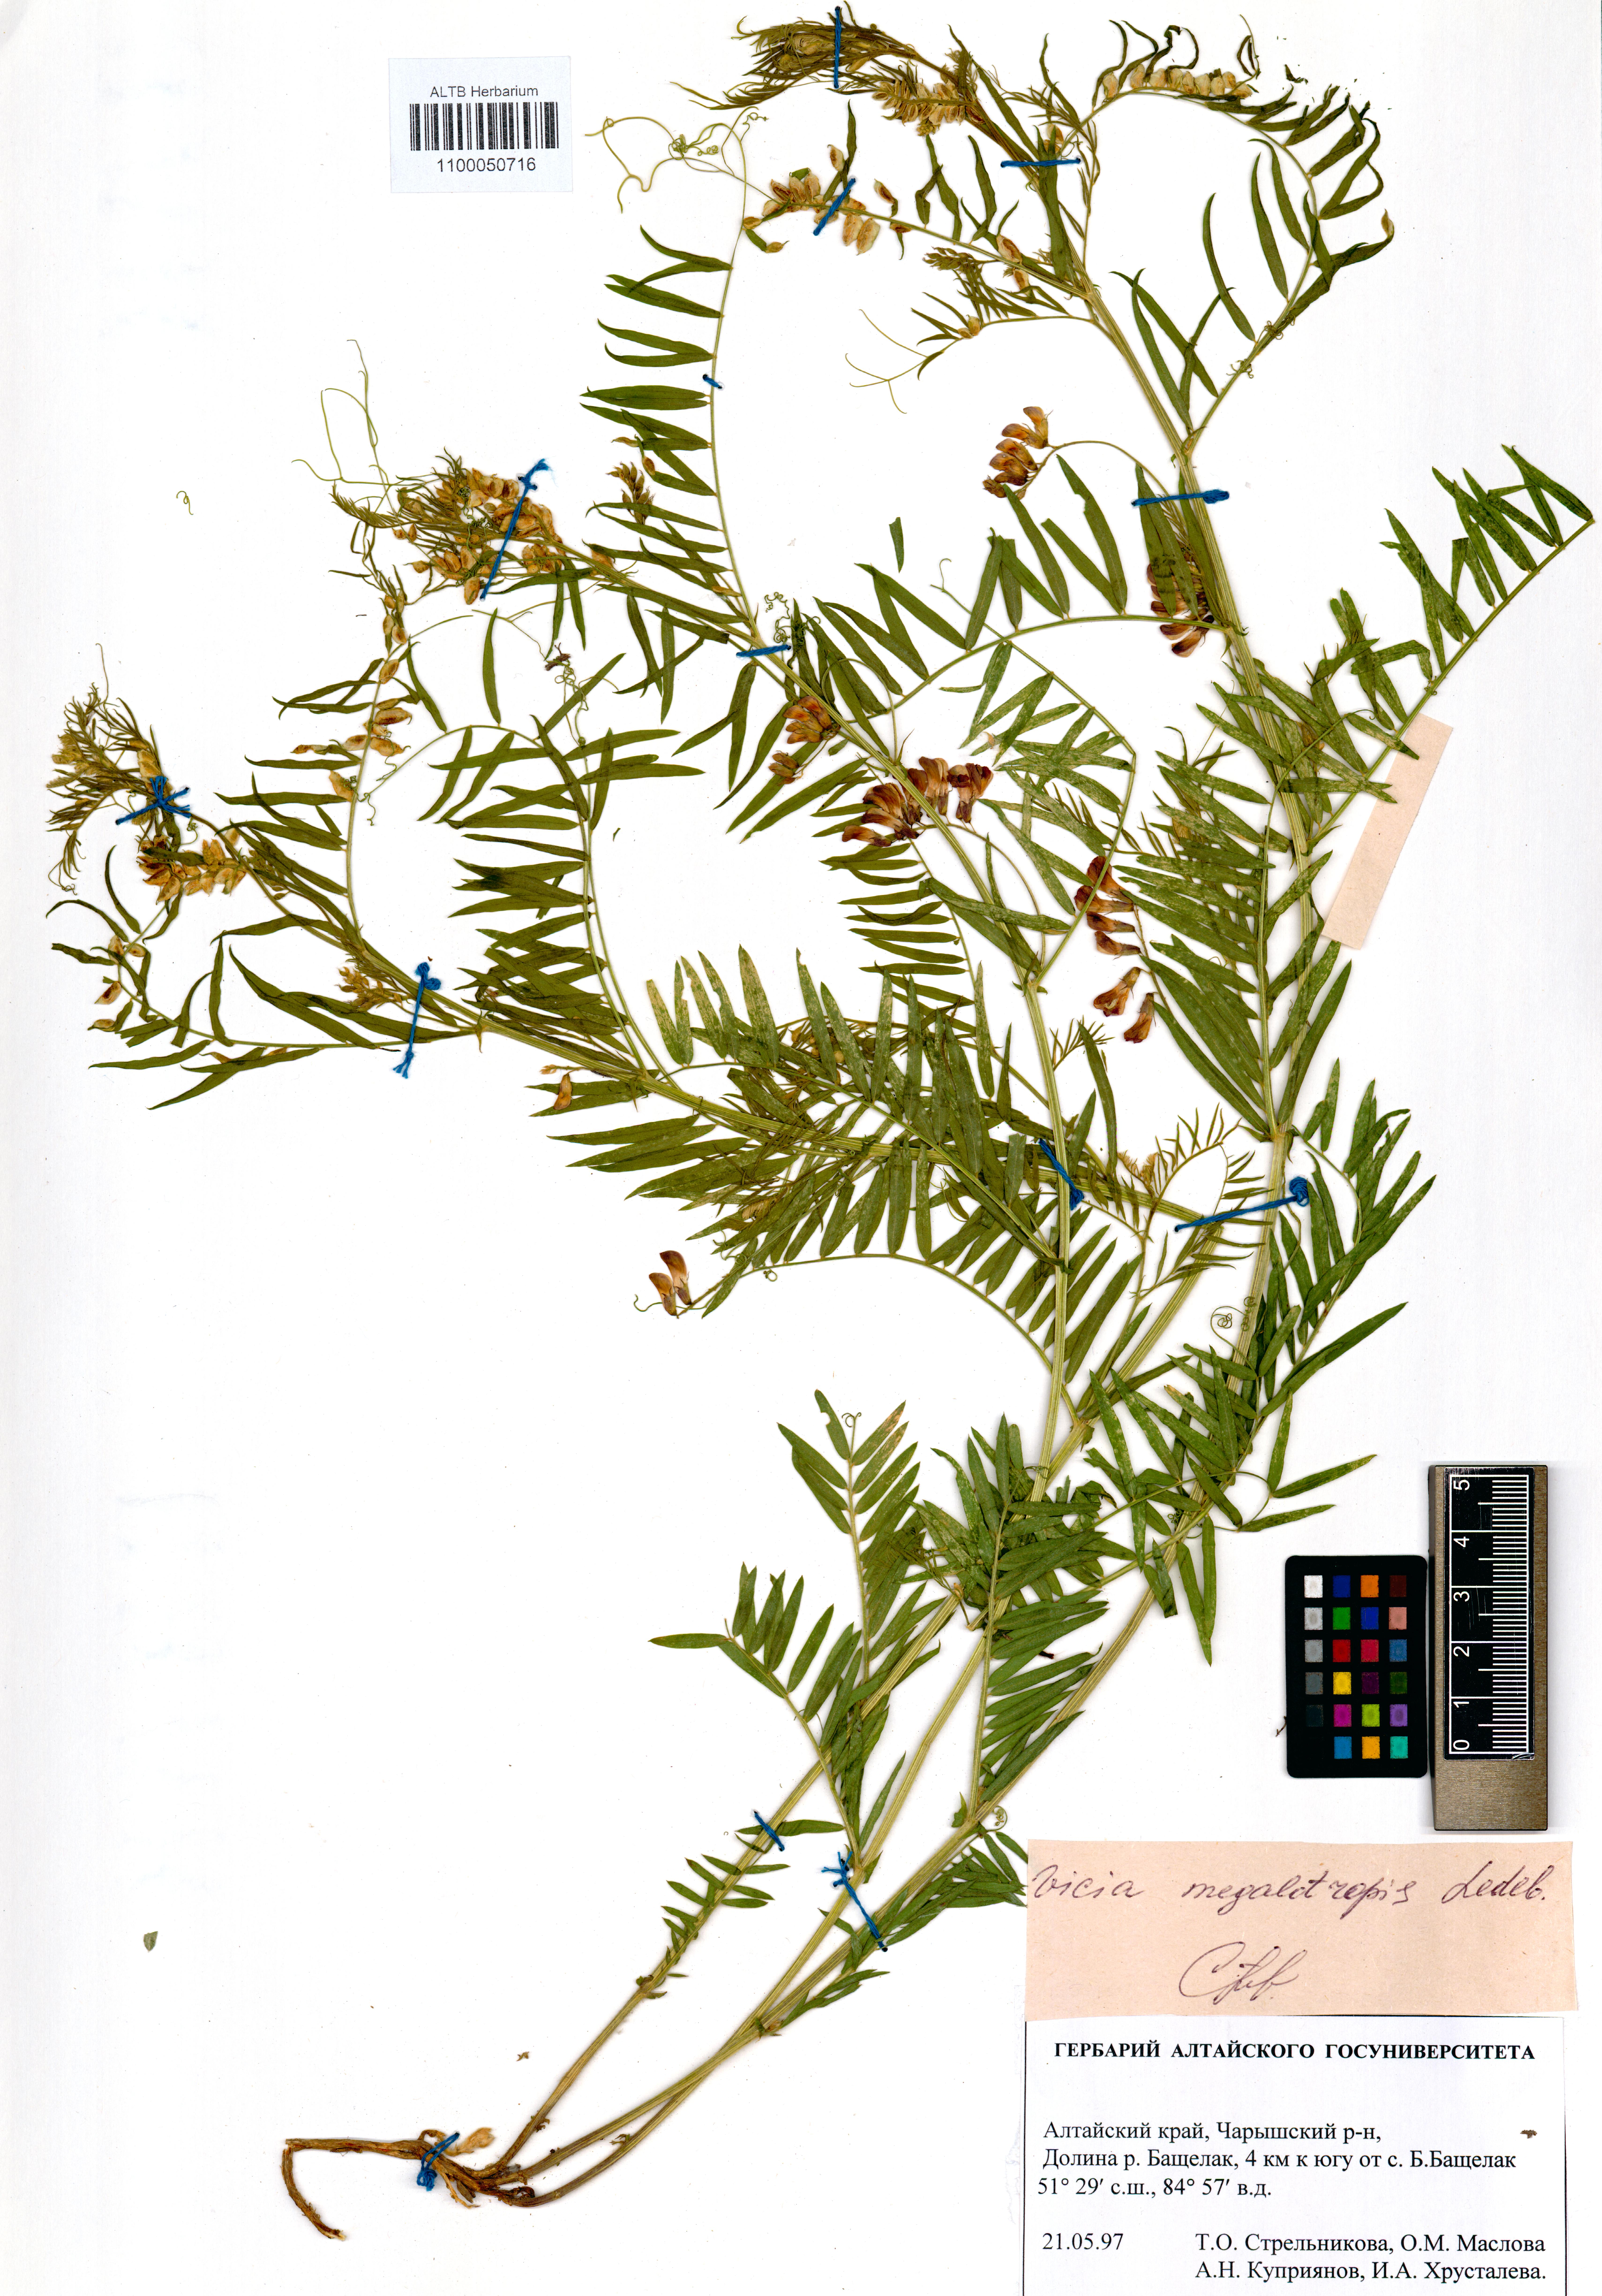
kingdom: Plantae
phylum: Tracheophyta
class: Magnoliopsida
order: Fabales
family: Fabaceae
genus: Vicia
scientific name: Vicia megalotropis
